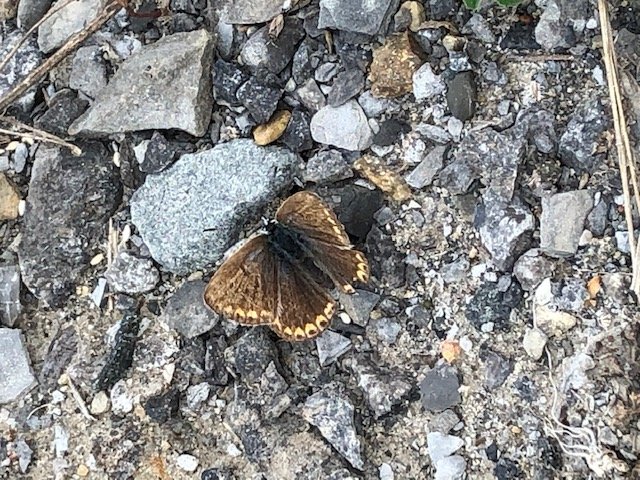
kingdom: Animalia
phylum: Arthropoda
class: Insecta
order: Lepidoptera
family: Lycaenidae
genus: Polyommatus
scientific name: Polyommatus icarus
